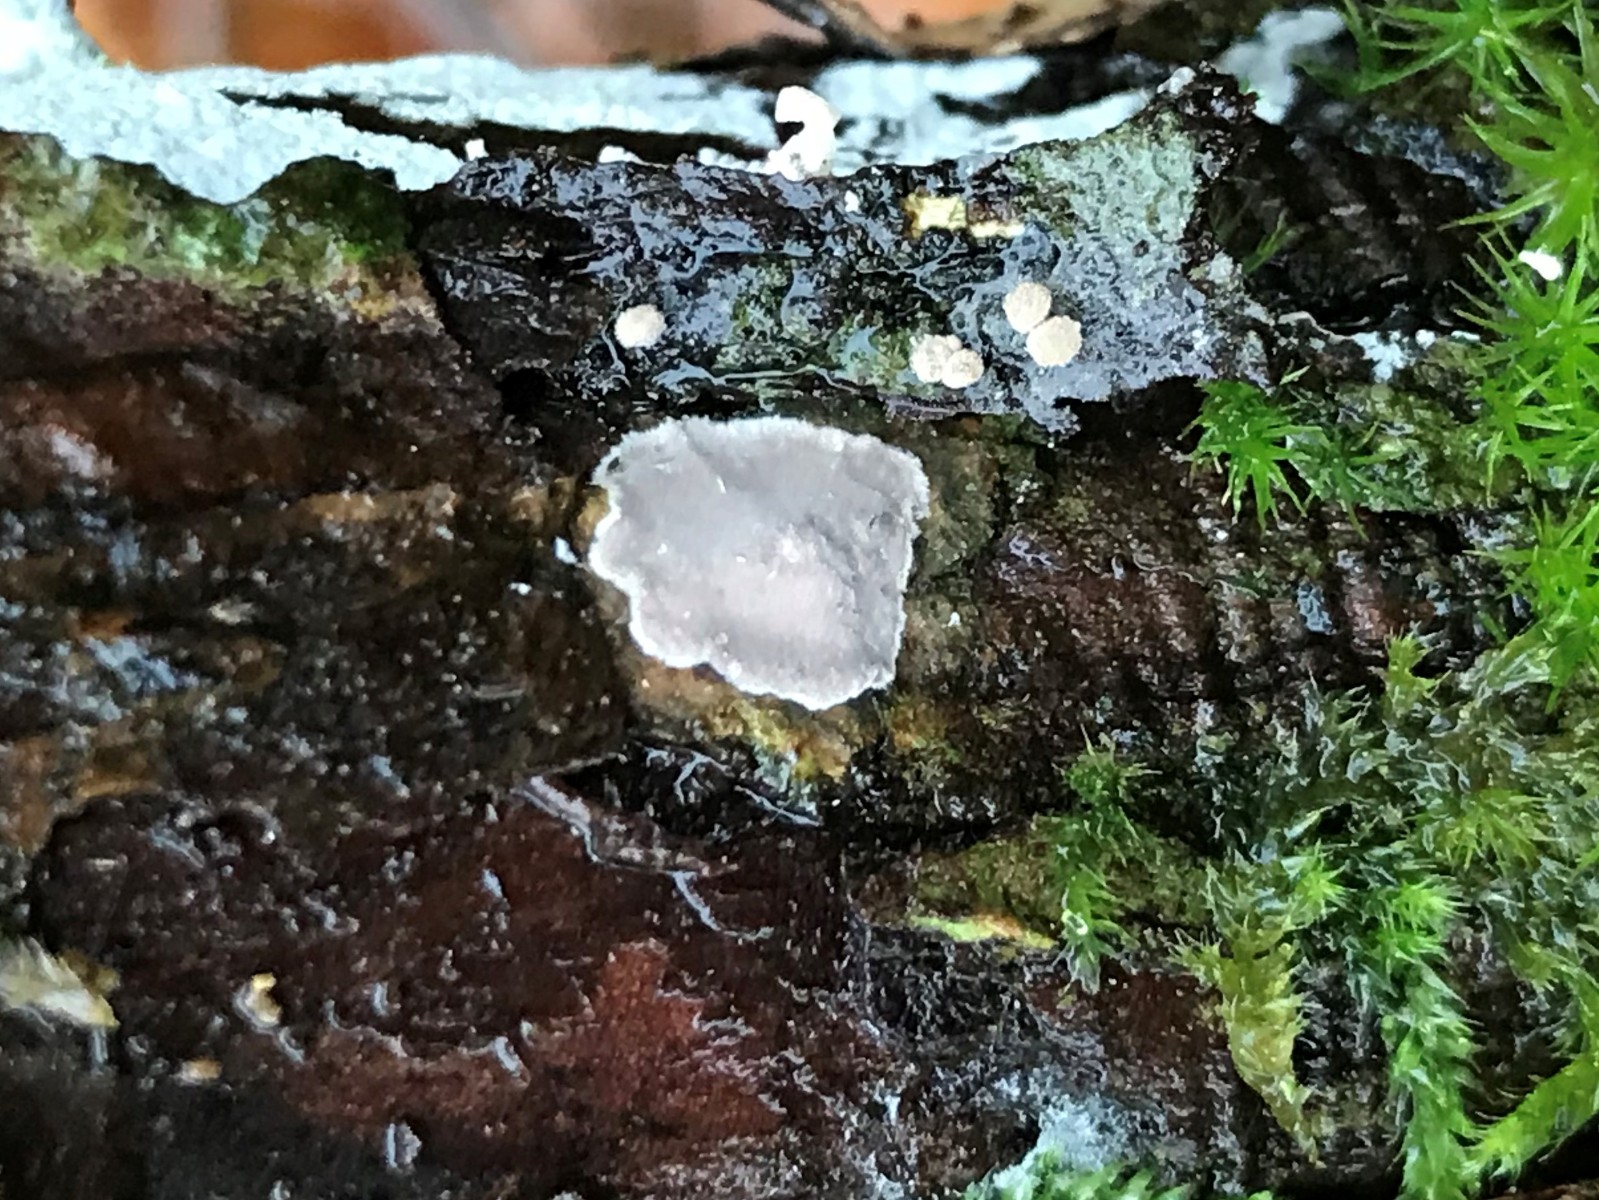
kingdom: Fungi
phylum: Basidiomycota
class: Agaricomycetes
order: Russulales
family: Echinodontiaceae
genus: Amylostereum
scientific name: Amylostereum laevigatum
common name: ene-lædersvamp
